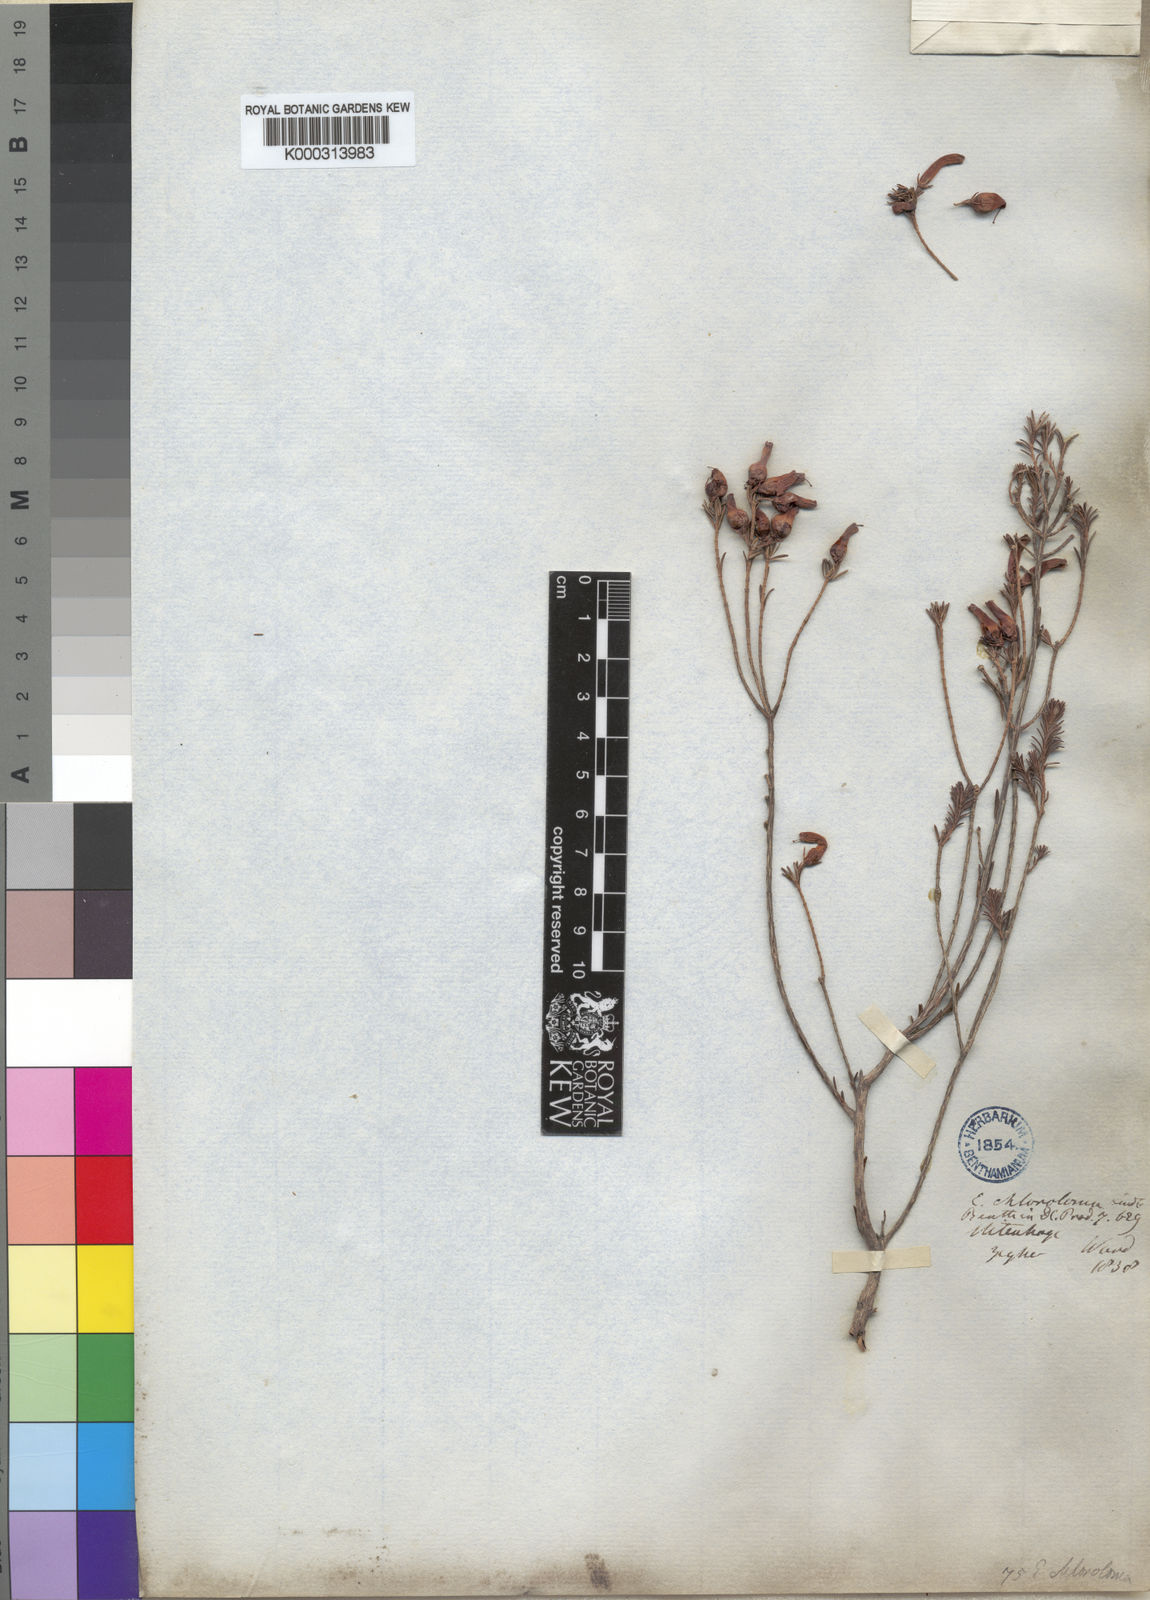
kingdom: Plantae
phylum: Tracheophyta
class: Magnoliopsida
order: Ericales
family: Ericaceae
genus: Erica
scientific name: Erica chloroloma
